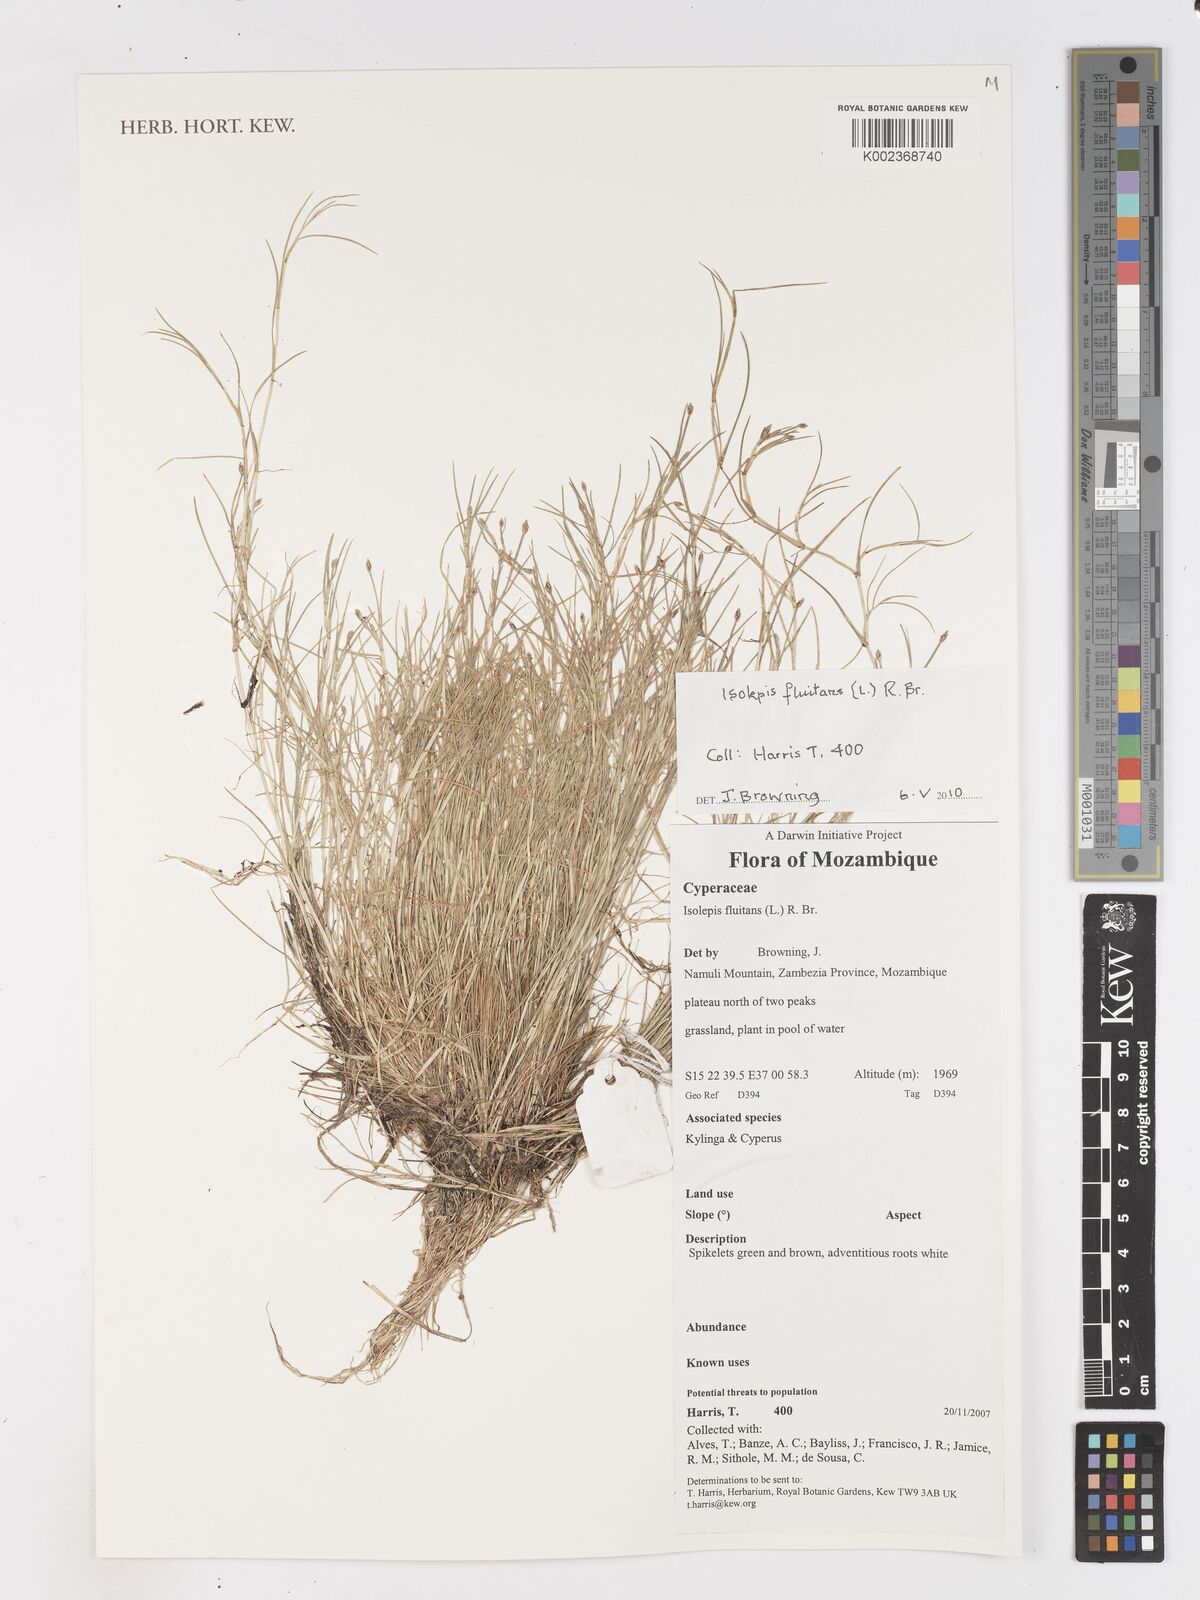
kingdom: Plantae
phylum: Tracheophyta
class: Liliopsida
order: Poales
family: Cyperaceae
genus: Isolepis
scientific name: Isolepis fluitans
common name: Floating club-rush
